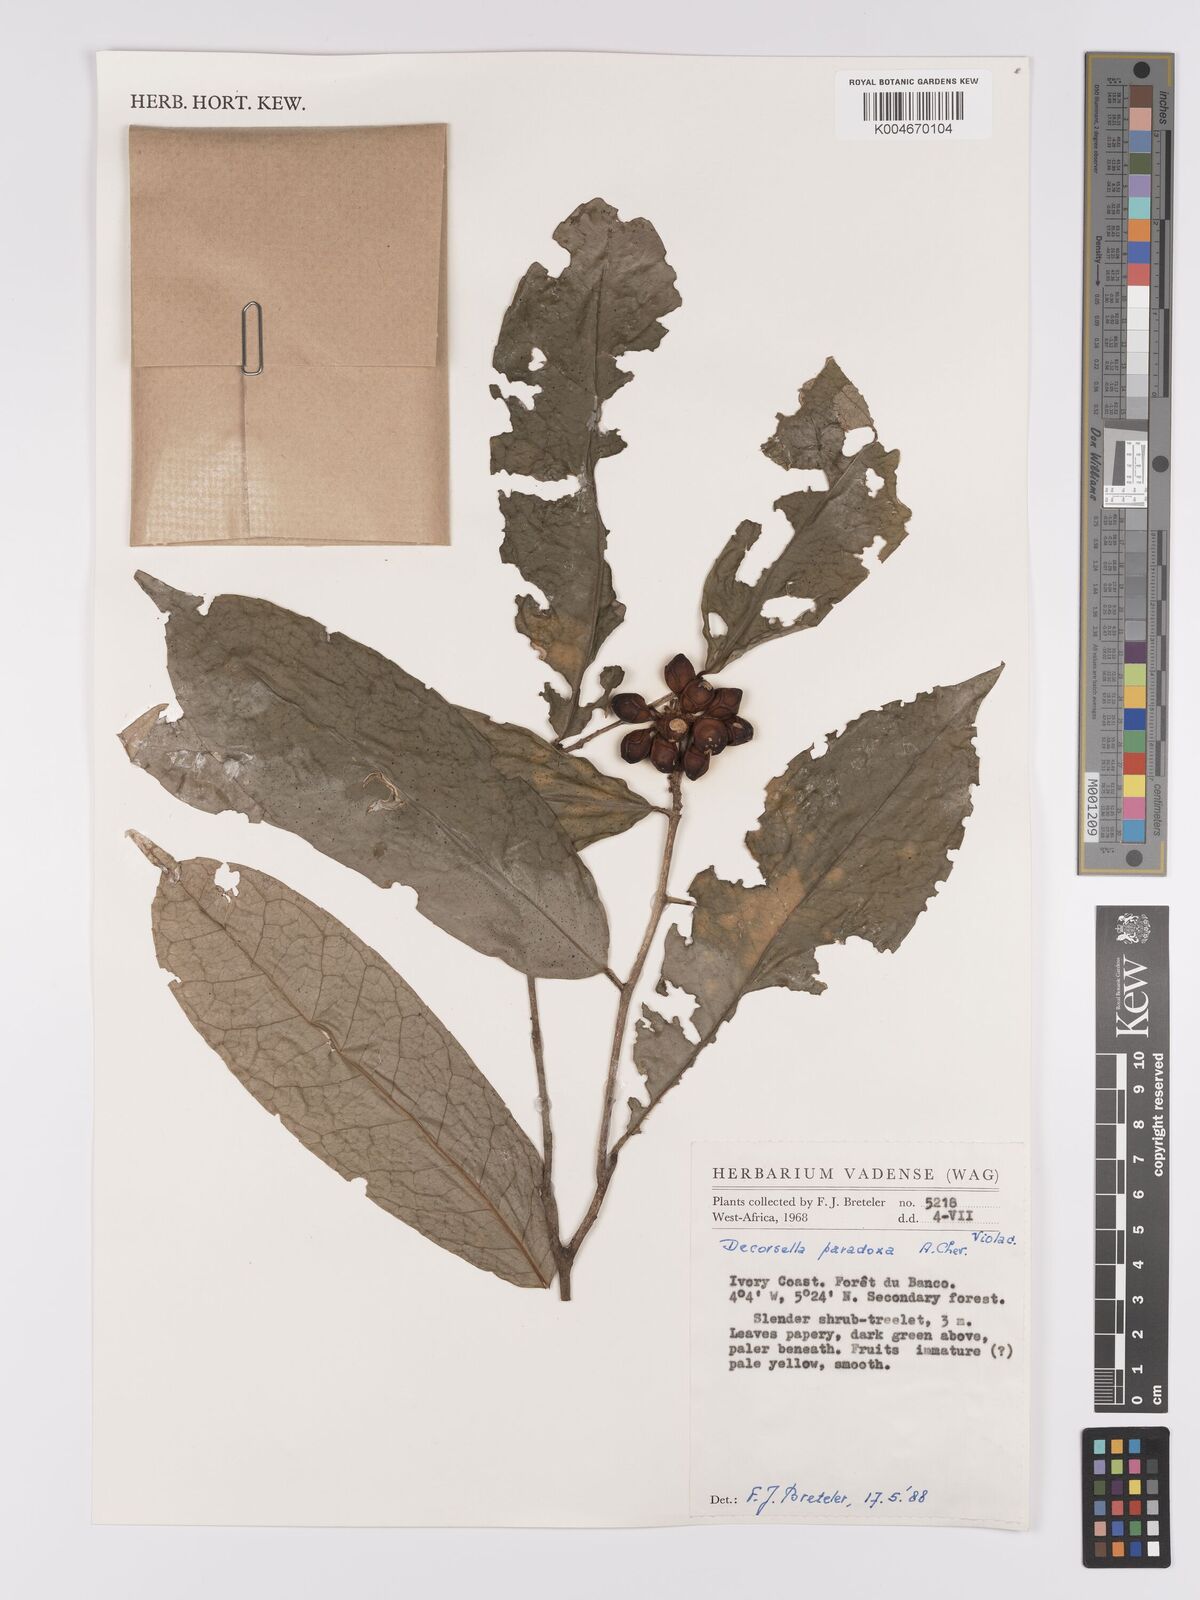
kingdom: Plantae
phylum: Tracheophyta
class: Magnoliopsida
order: Malpighiales
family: Violaceae
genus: Decorsella
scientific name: Decorsella paradoxa
